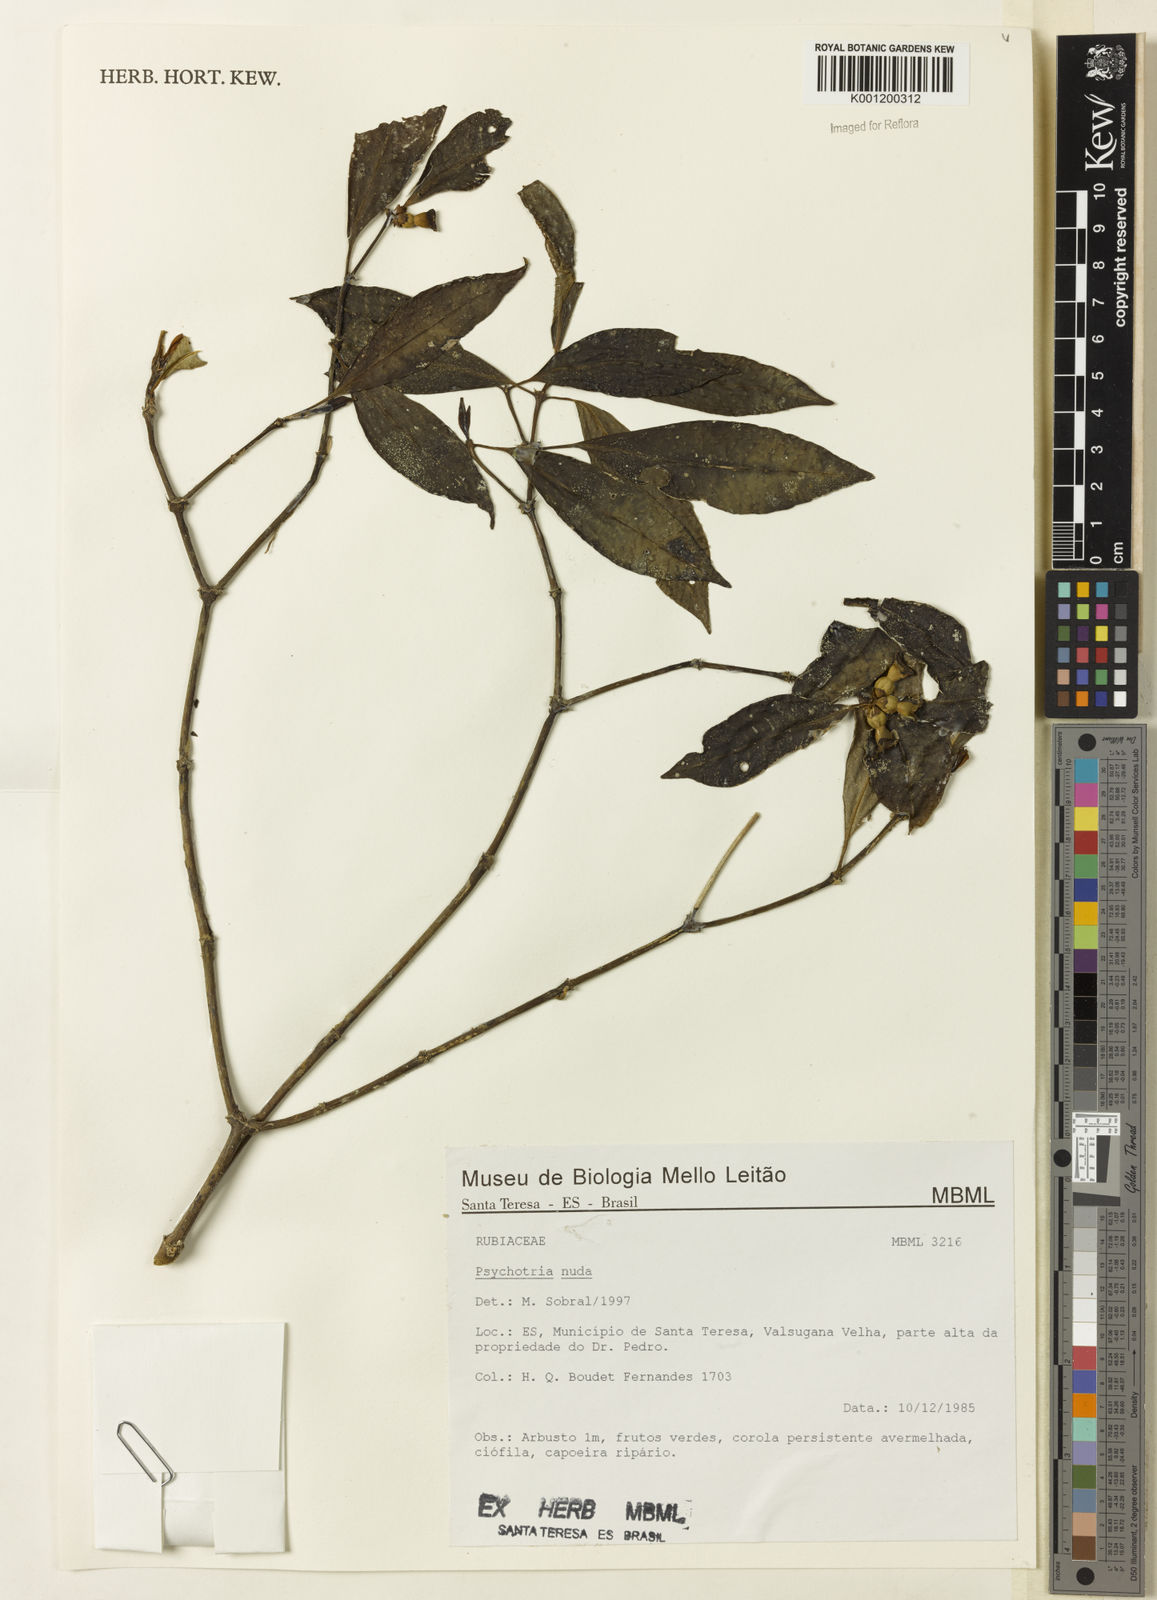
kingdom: Plantae
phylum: Tracheophyta
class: Magnoliopsida
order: Gentianales
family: Rubiaceae
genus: Psychotria
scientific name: Psychotria nuda
